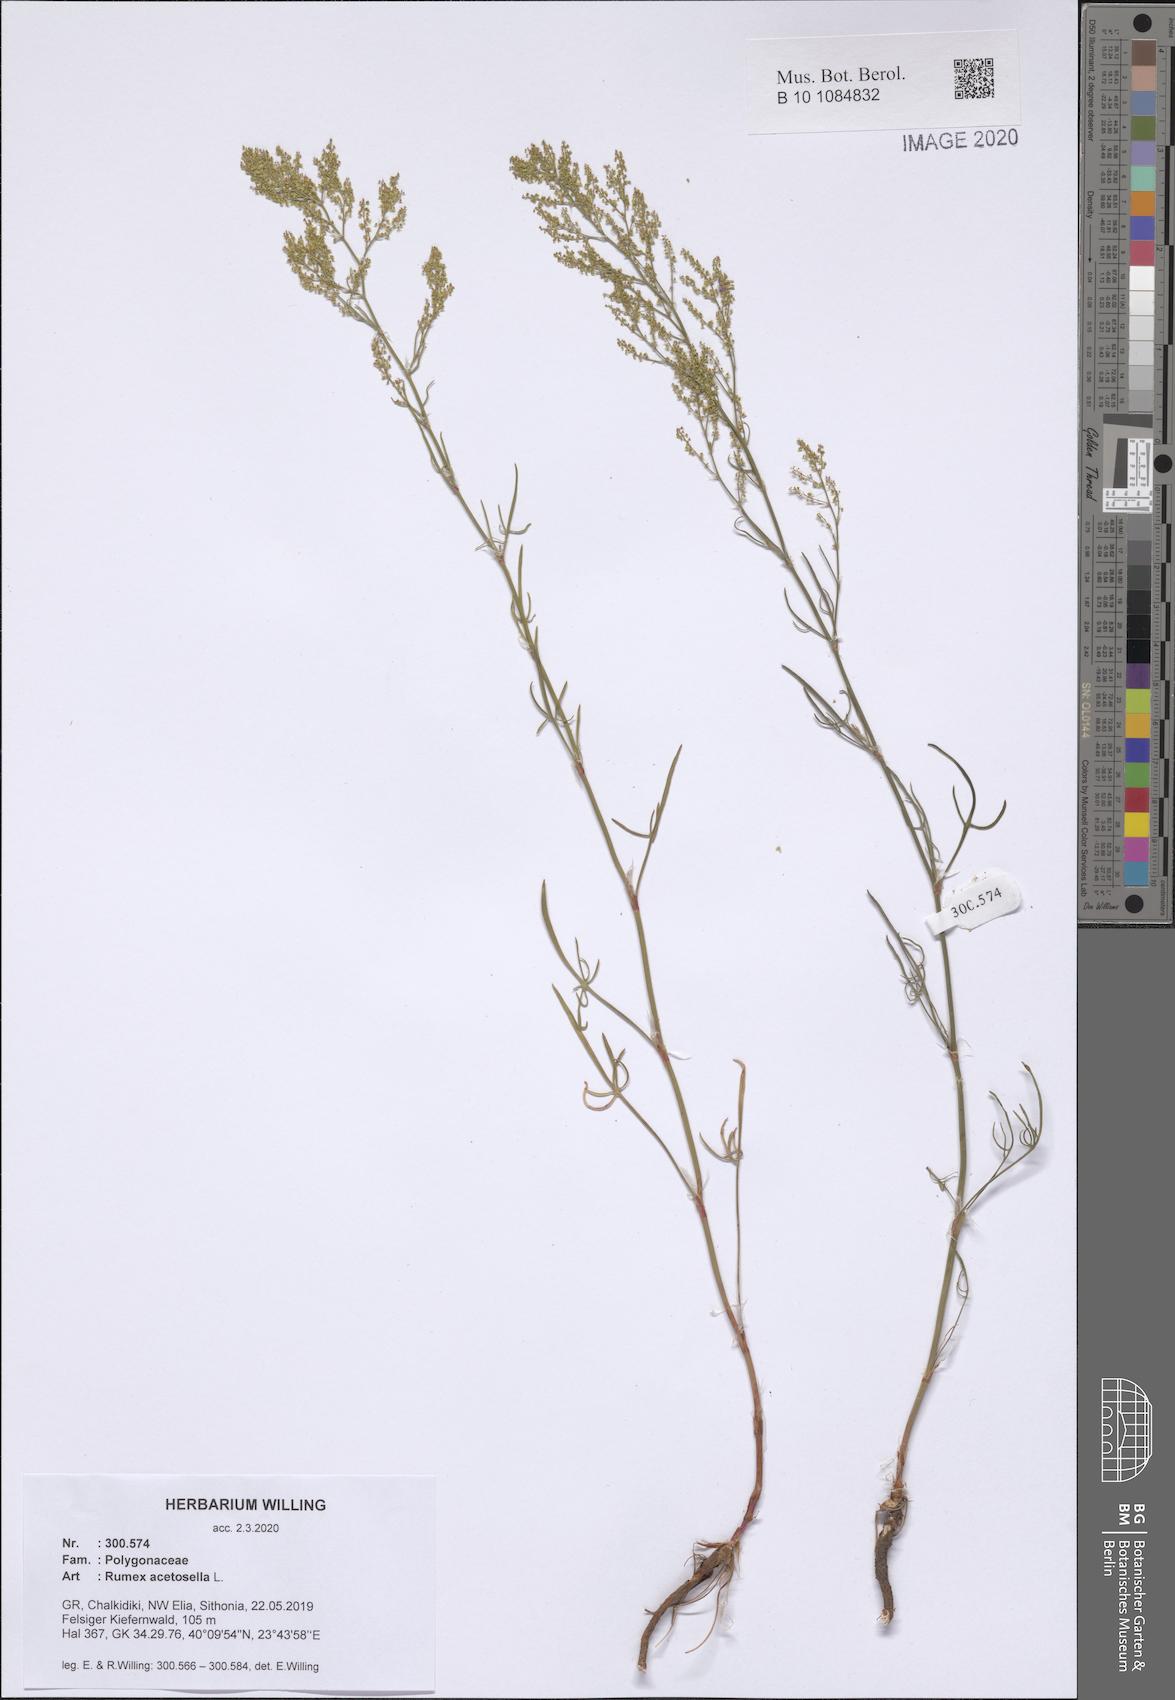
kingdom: Plantae
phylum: Tracheophyta
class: Magnoliopsida
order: Caryophyllales
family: Polygonaceae
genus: Rumex
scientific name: Rumex acetosella
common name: Common sheep sorrel
